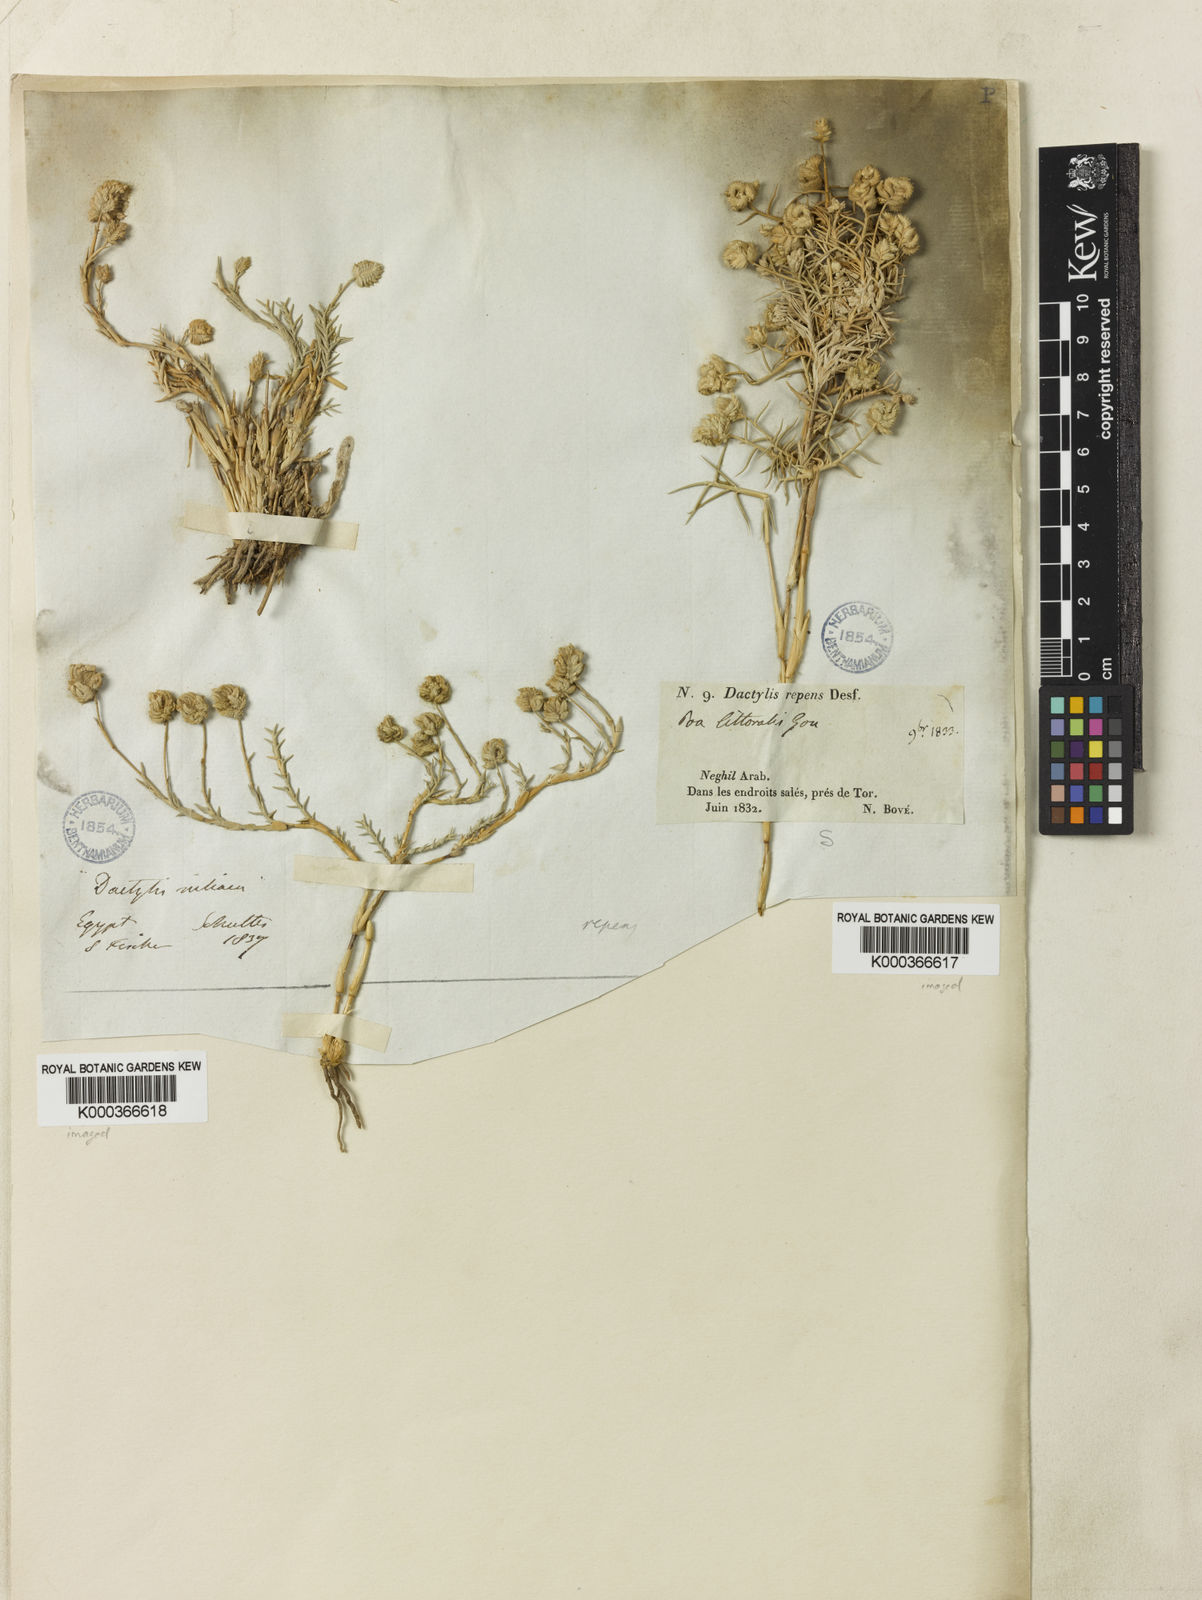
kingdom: Plantae
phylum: Tracheophyta
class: Liliopsida
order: Poales
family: Poaceae
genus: Aeluropus
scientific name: Aeluropus lagopoides
